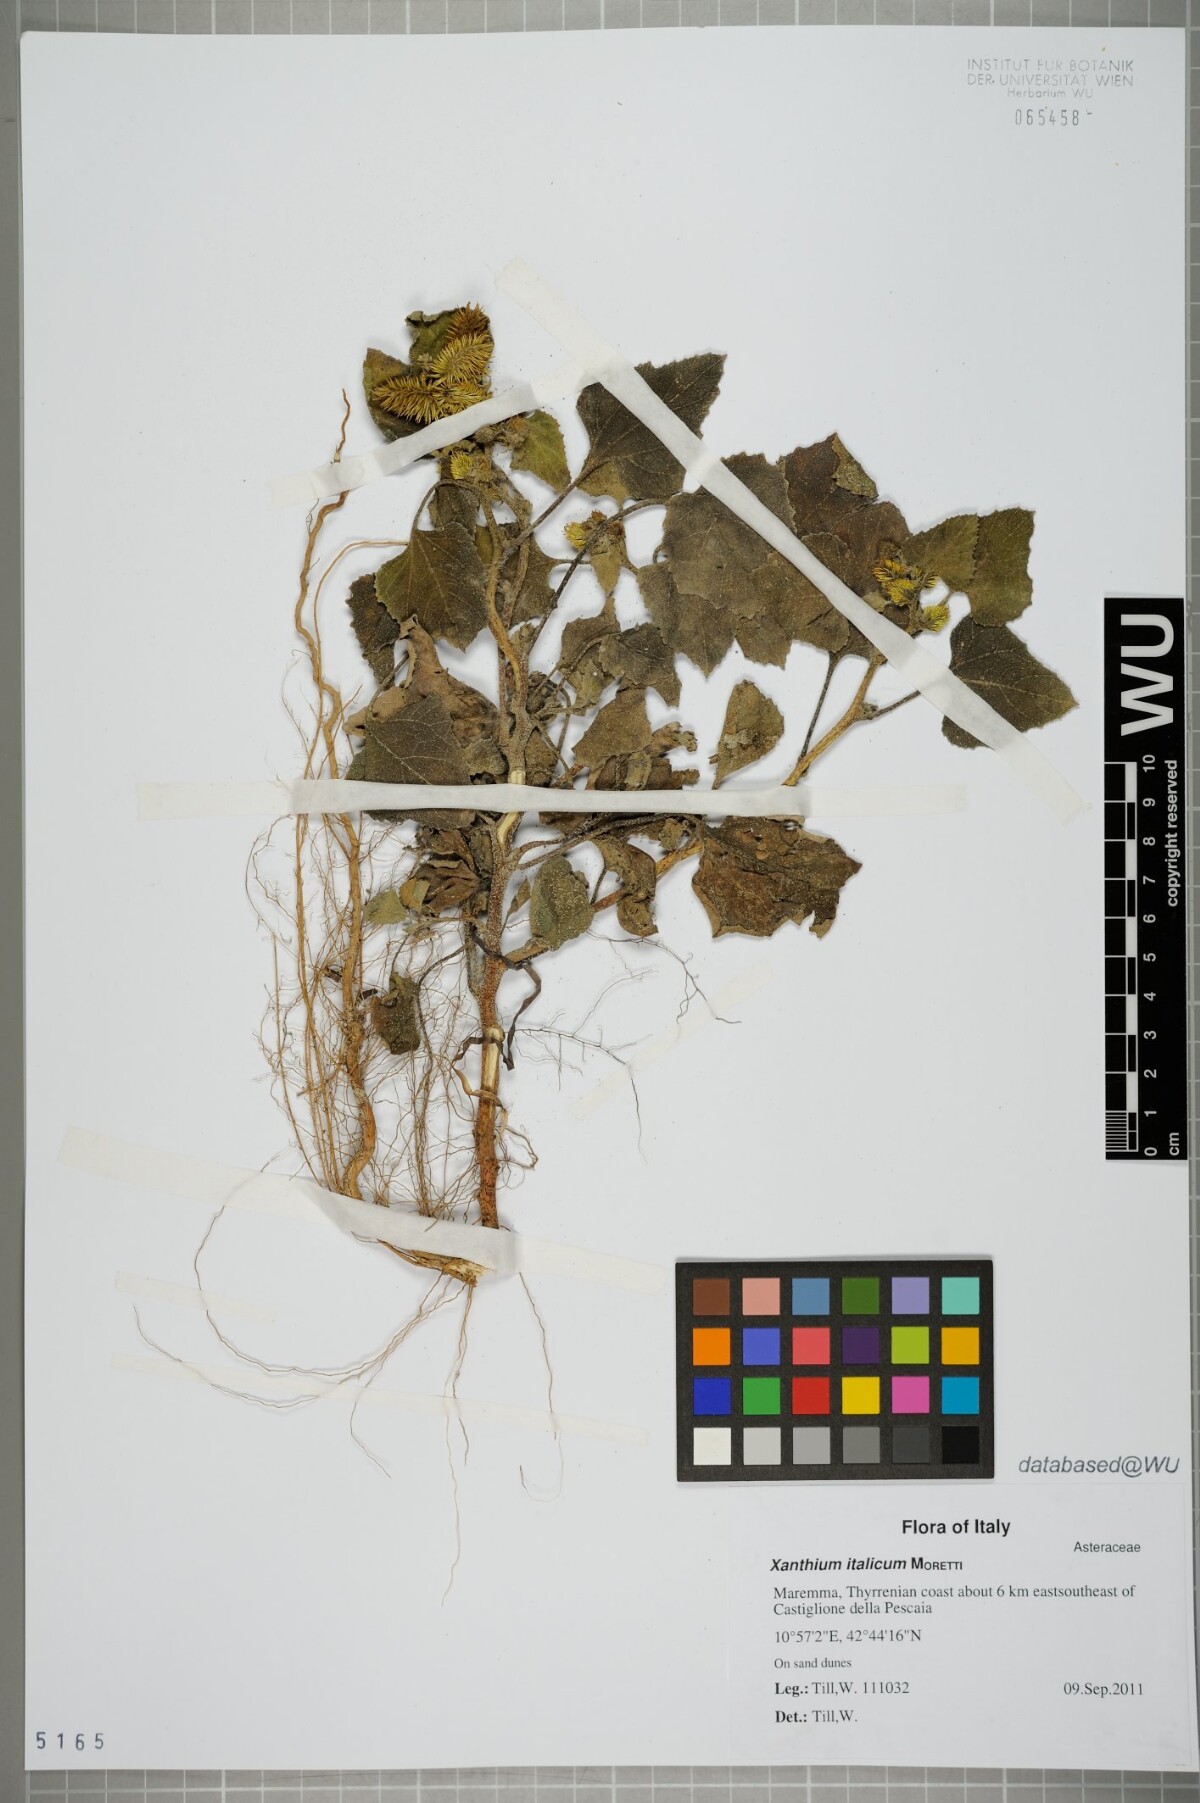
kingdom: Plantae
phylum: Tracheophyta
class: Magnoliopsida
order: Asterales
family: Asteraceae
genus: Xanthium
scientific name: Xanthium orientale
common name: Californian burr
